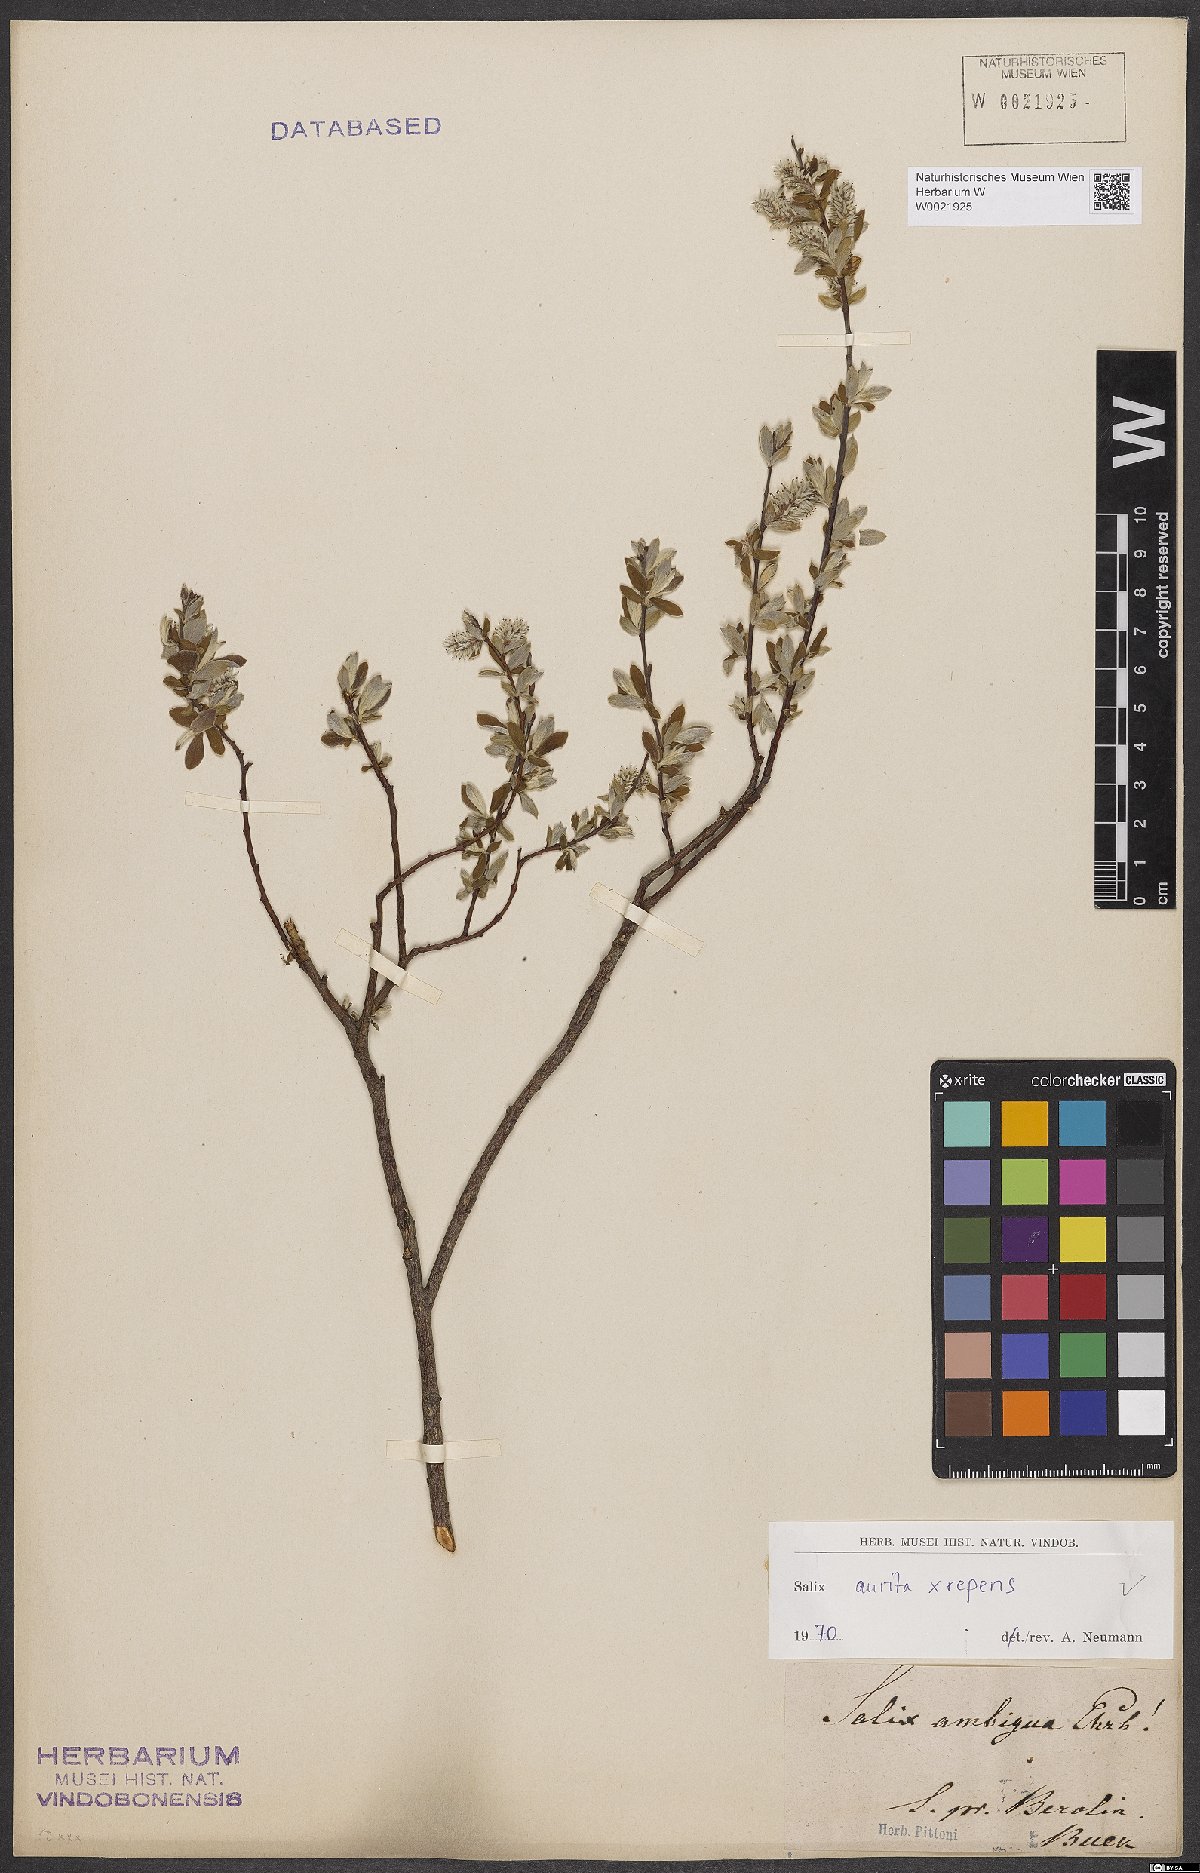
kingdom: Plantae
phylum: Tracheophyta
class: Magnoliopsida
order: Malpighiales
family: Salicaceae
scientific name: Salicaceae
